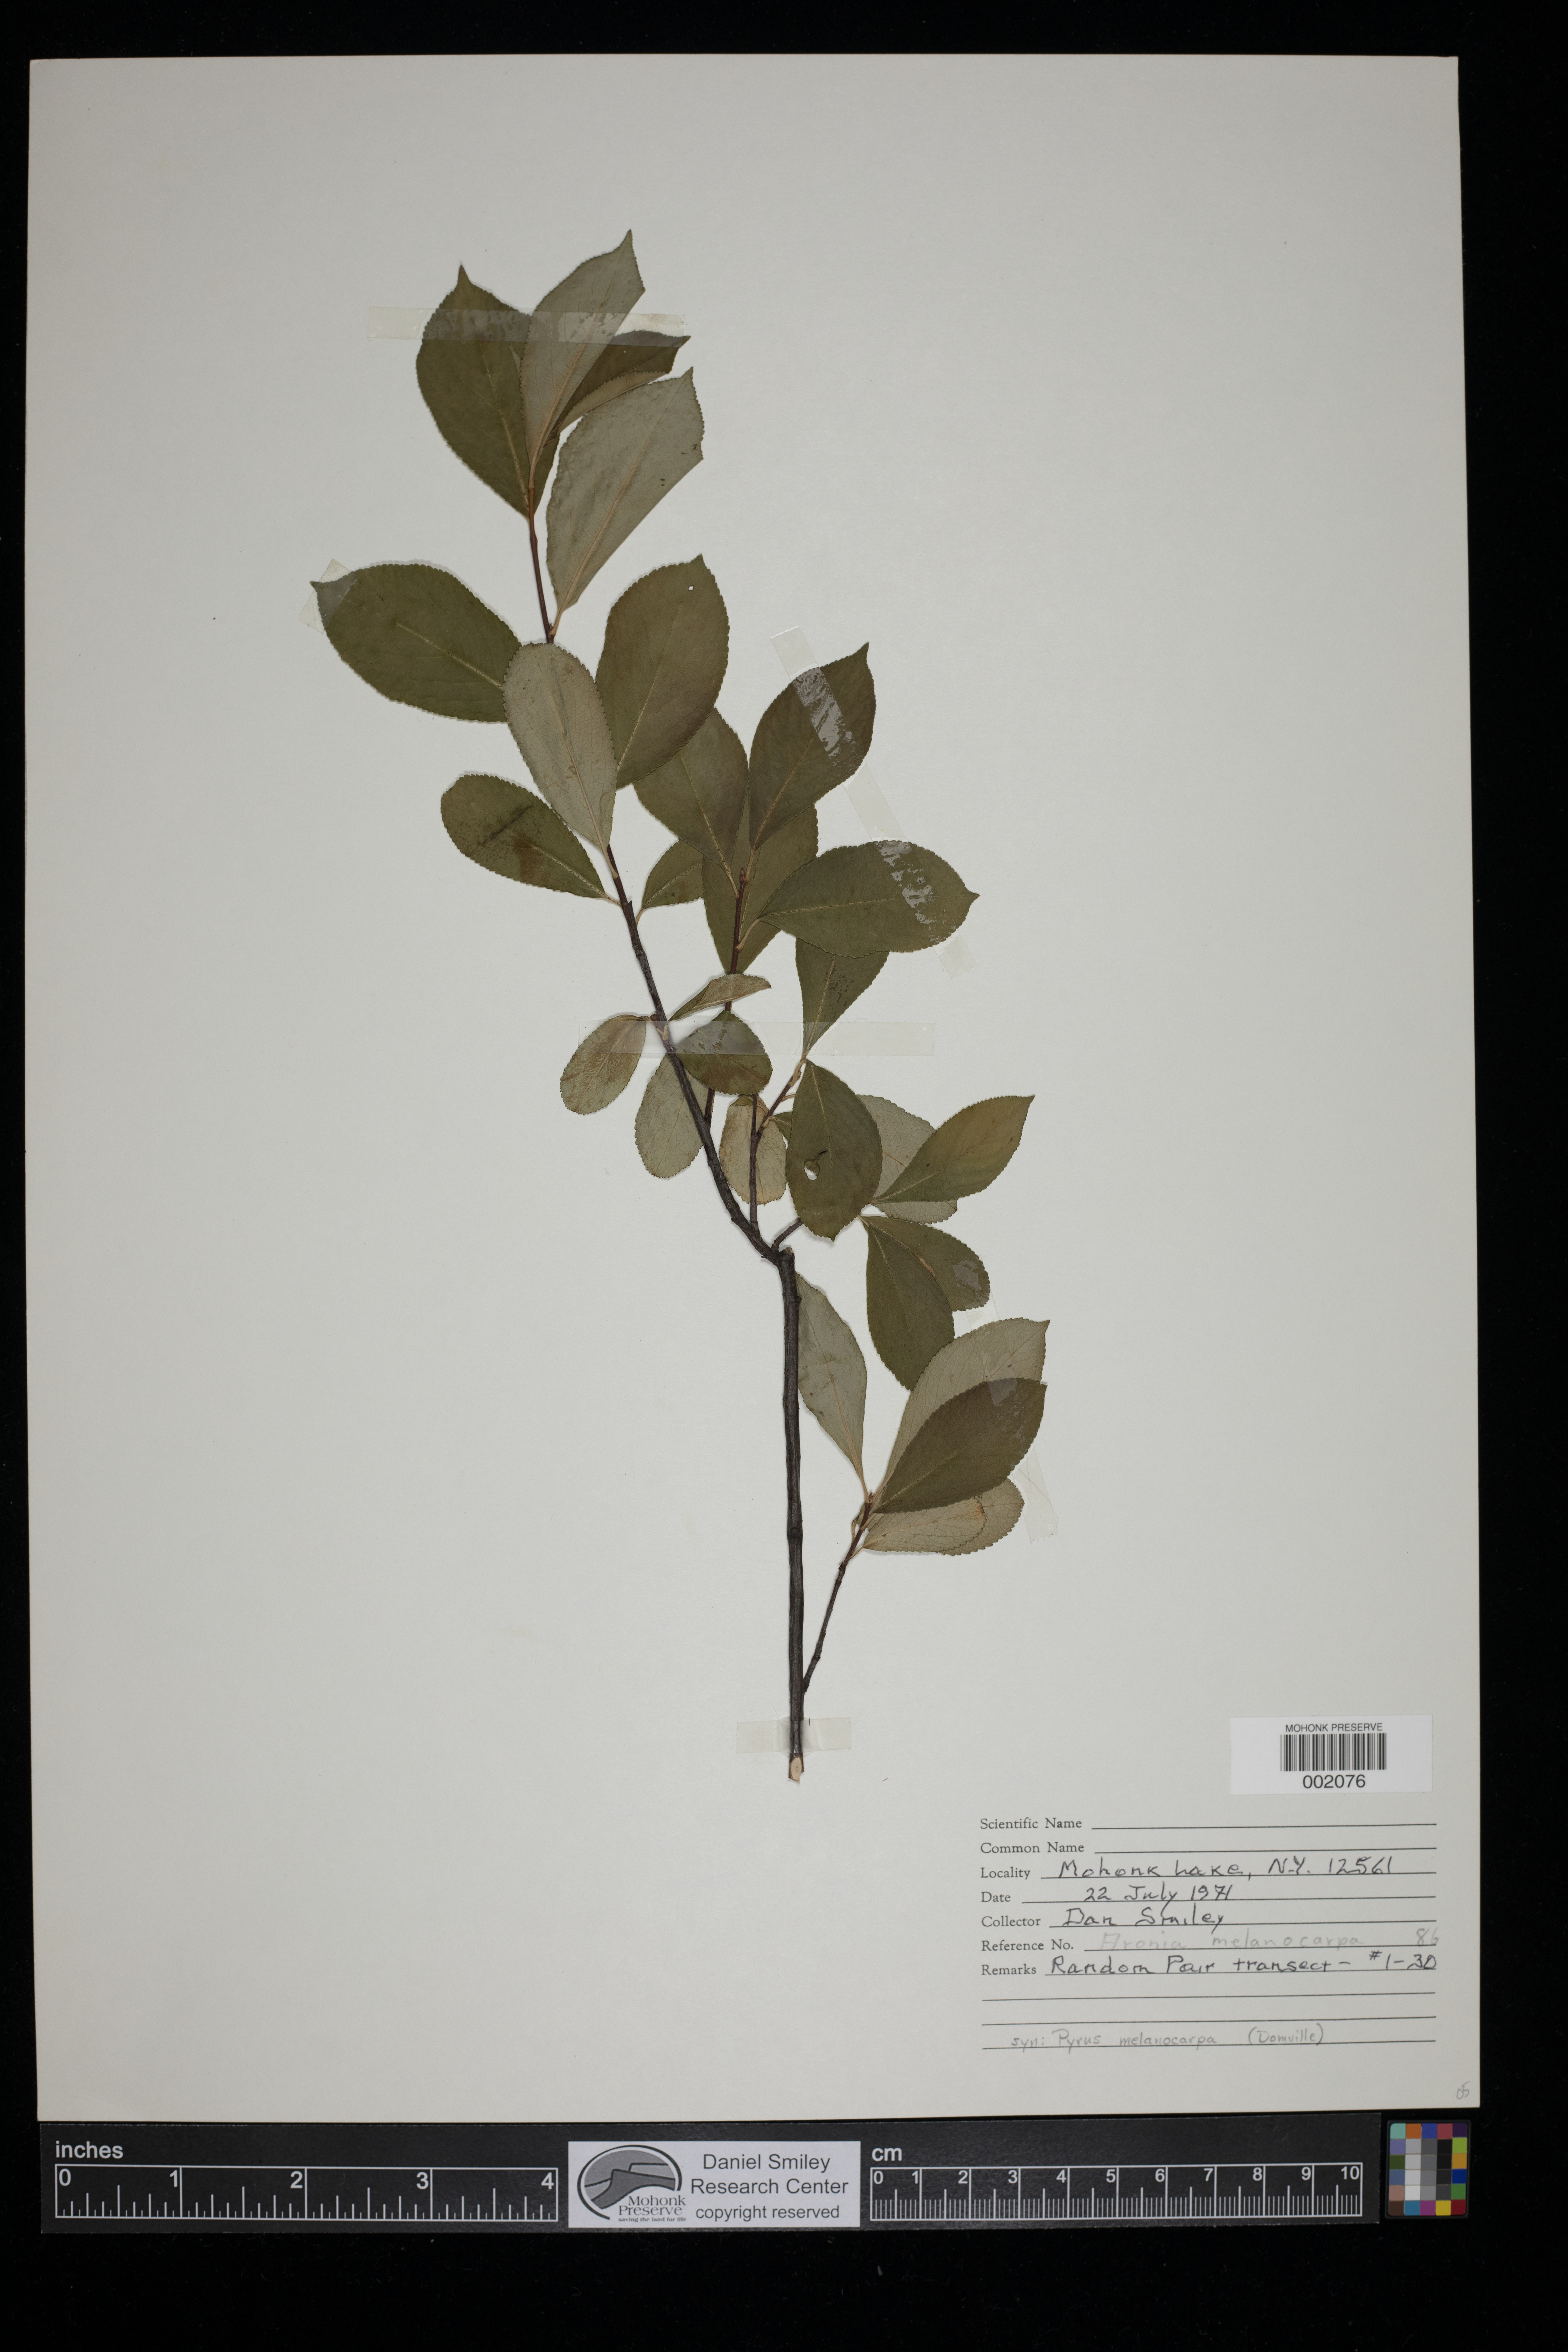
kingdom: Plantae
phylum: Tracheophyta
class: Magnoliopsida
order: Rosales
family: Rosaceae
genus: Aronia
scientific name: Aronia melanocarpa
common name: Black chokeberry
